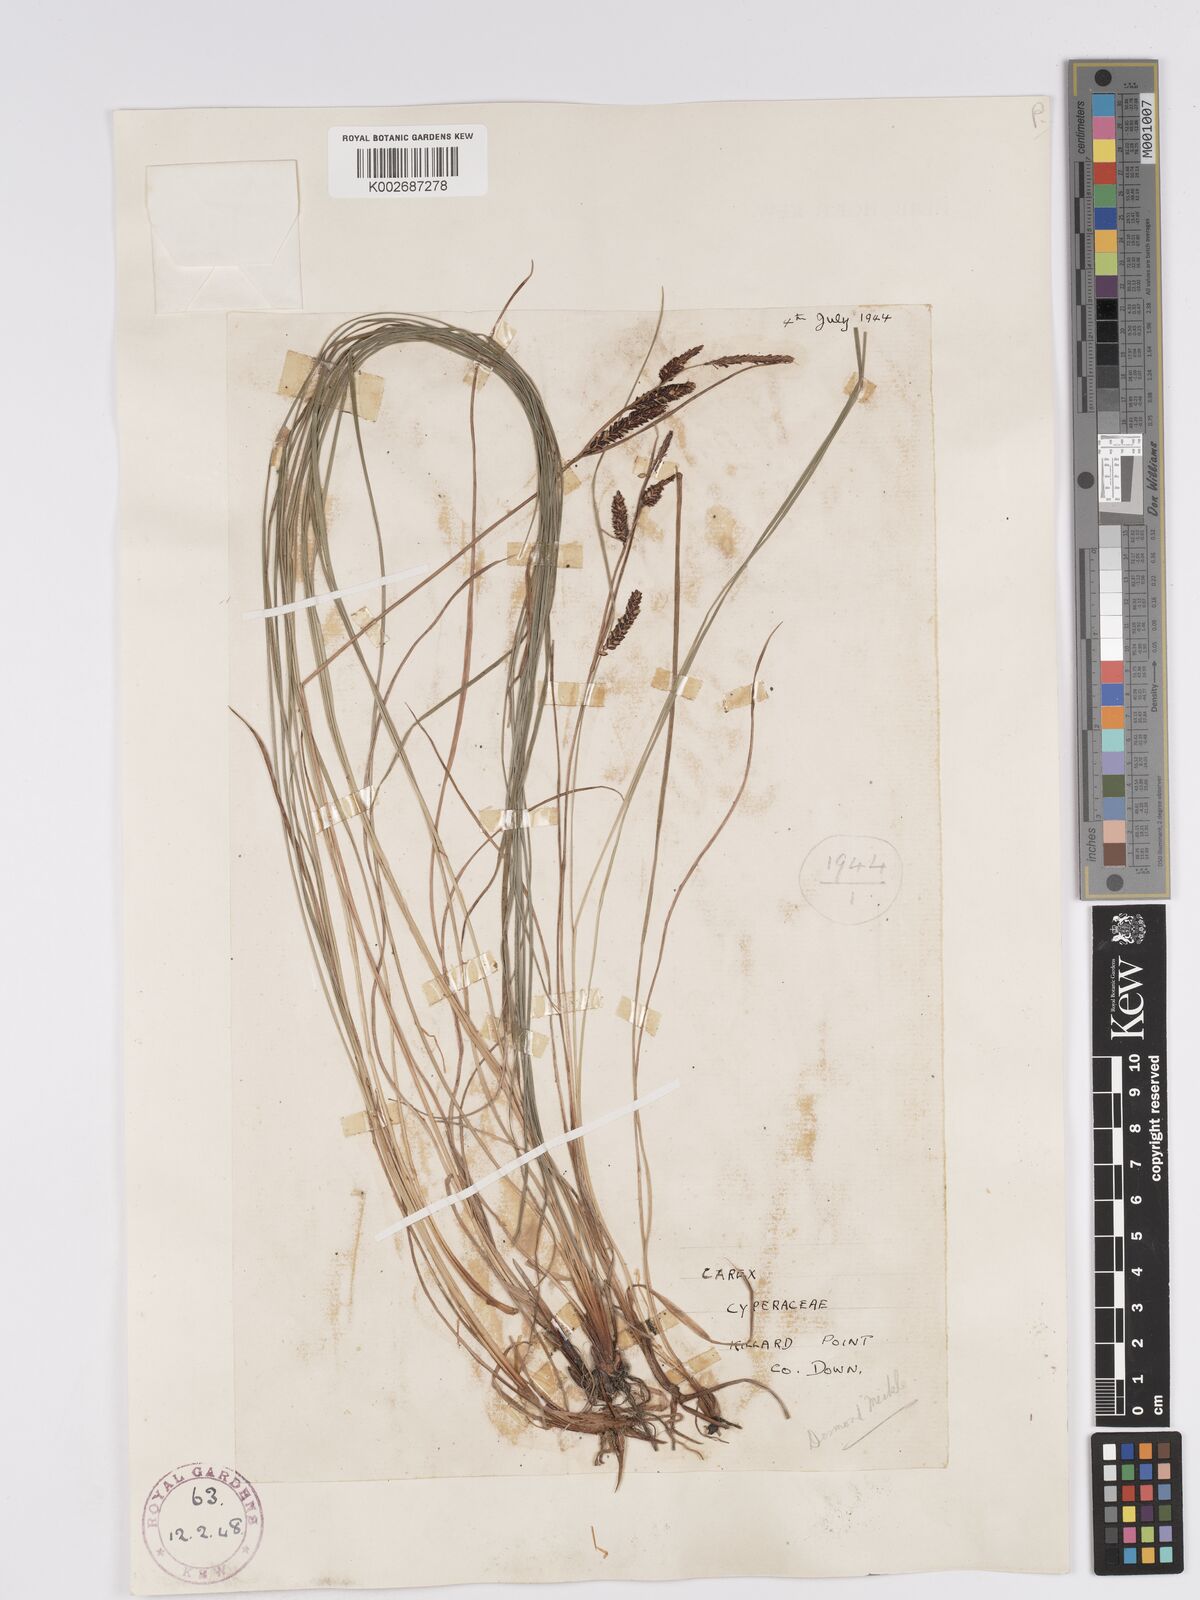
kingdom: Plantae
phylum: Tracheophyta
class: Liliopsida
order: Poales
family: Cyperaceae
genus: Carex
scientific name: Carex nigra
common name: Common sedge
